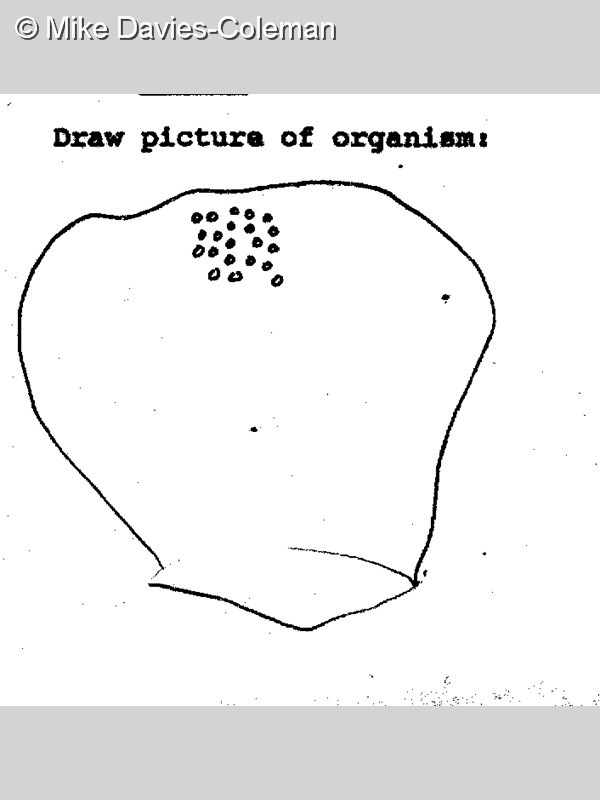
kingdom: Animalia
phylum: Chordata
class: Ascidiacea
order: Aplousobranchia
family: Pseudodistomidae
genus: Pseudodistoma
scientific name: Pseudodistoma
